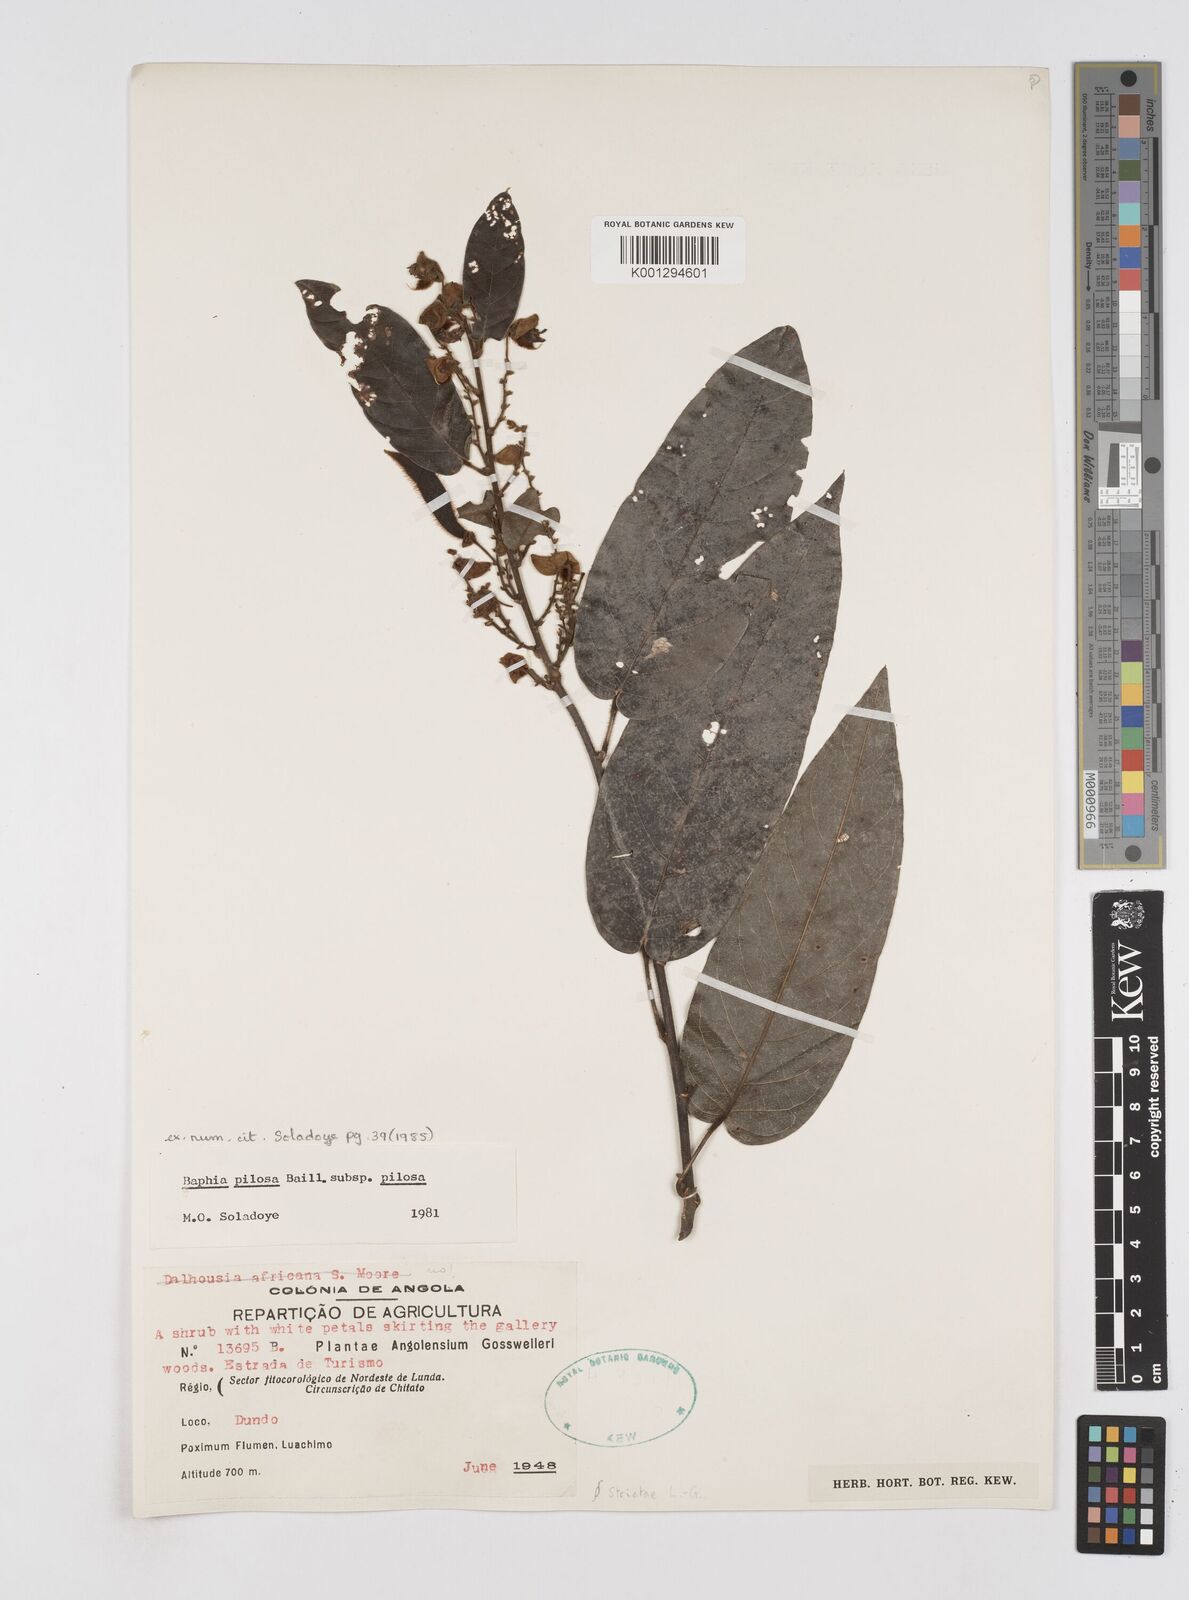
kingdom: Plantae
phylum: Tracheophyta
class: Magnoliopsida
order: Fabales
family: Fabaceae
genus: Baphia
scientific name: Baphia pilosa
